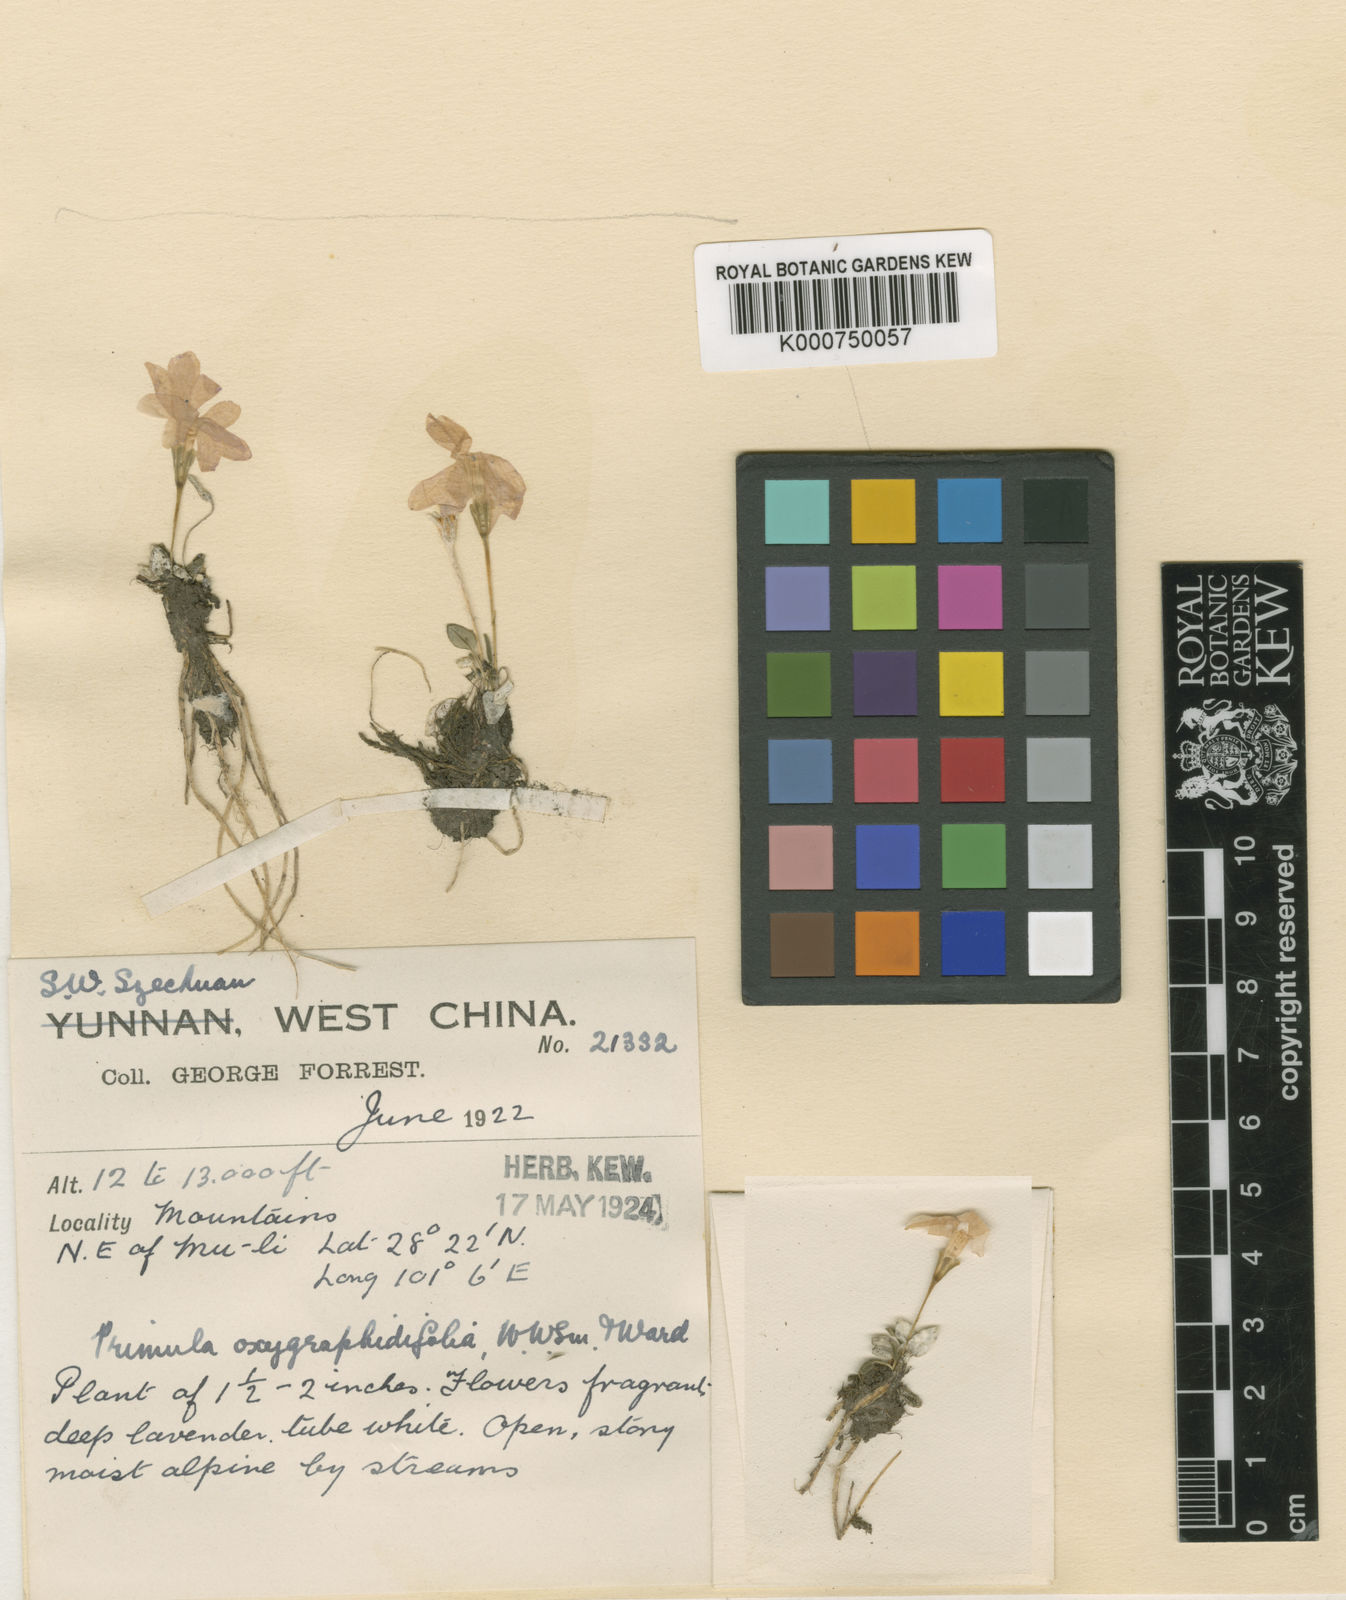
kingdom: Plantae
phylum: Tracheophyta
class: Magnoliopsida
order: Ericales
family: Primulaceae
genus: Primula
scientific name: Primula
